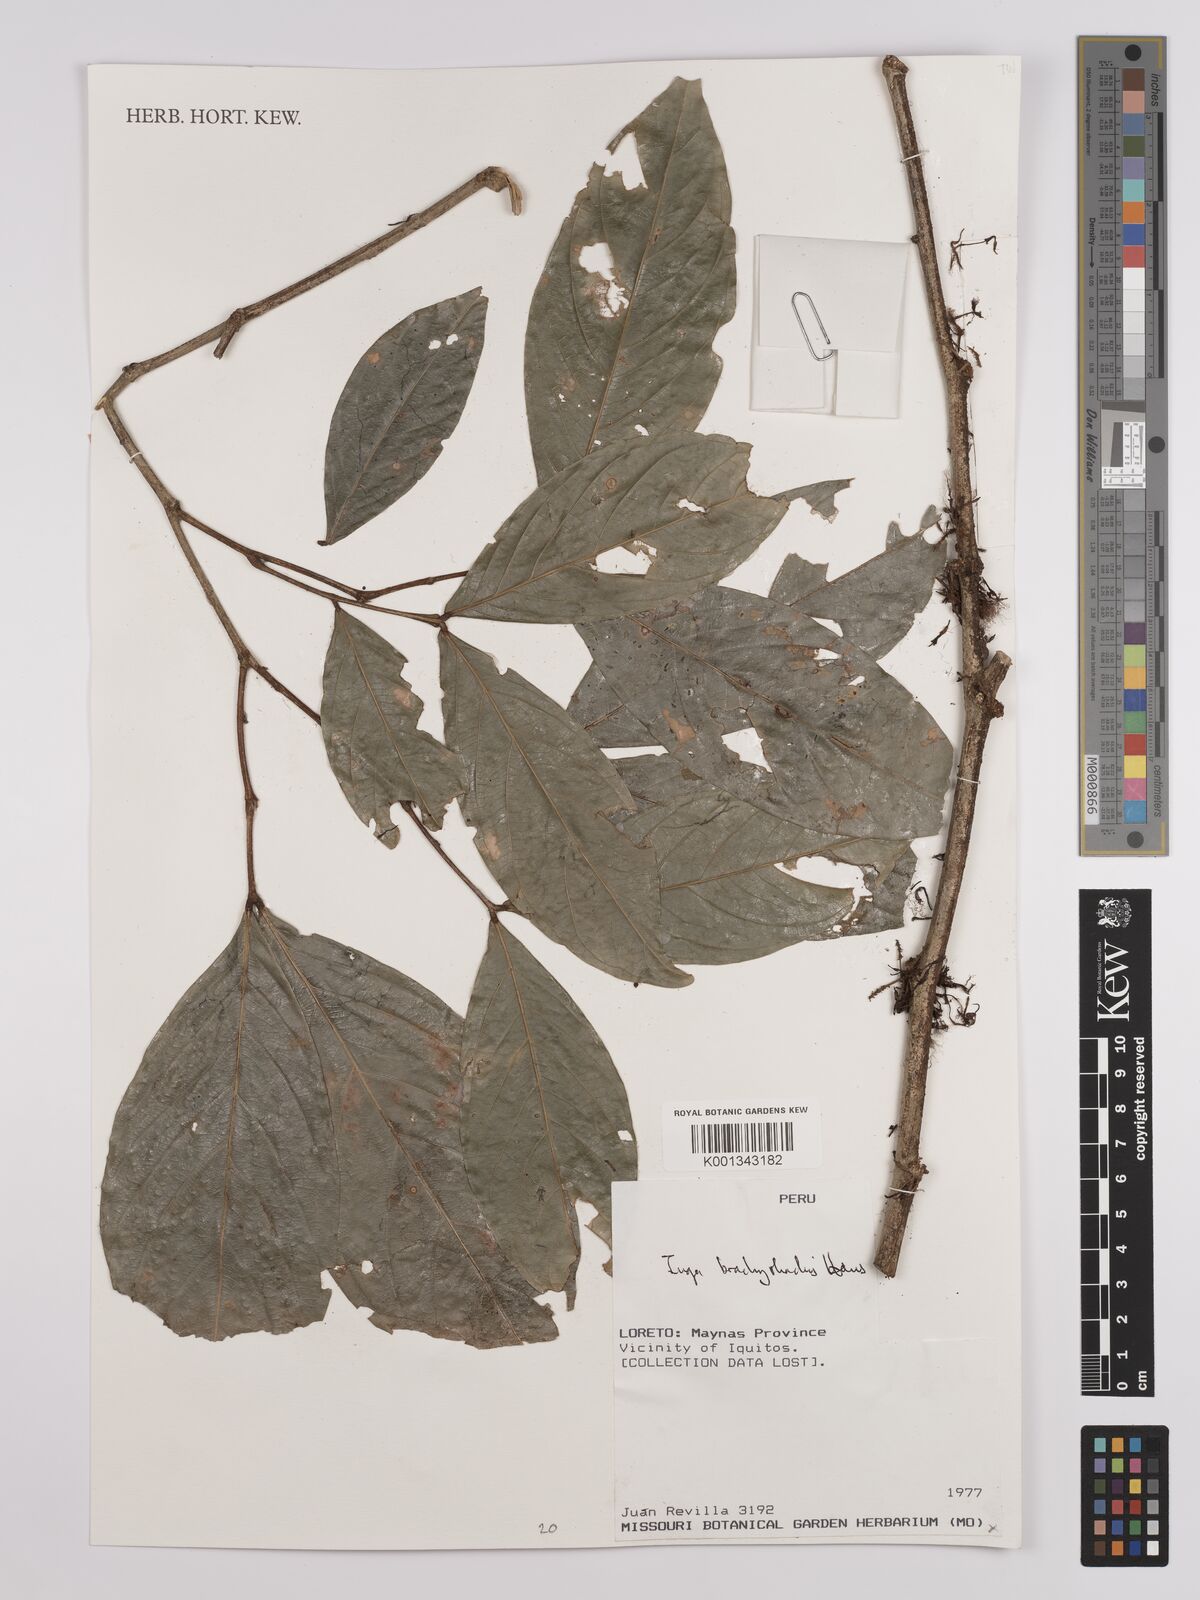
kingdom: Plantae
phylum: Tracheophyta
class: Magnoliopsida
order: Fabales
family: Fabaceae
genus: Inga
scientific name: Inga brachyrhachis
